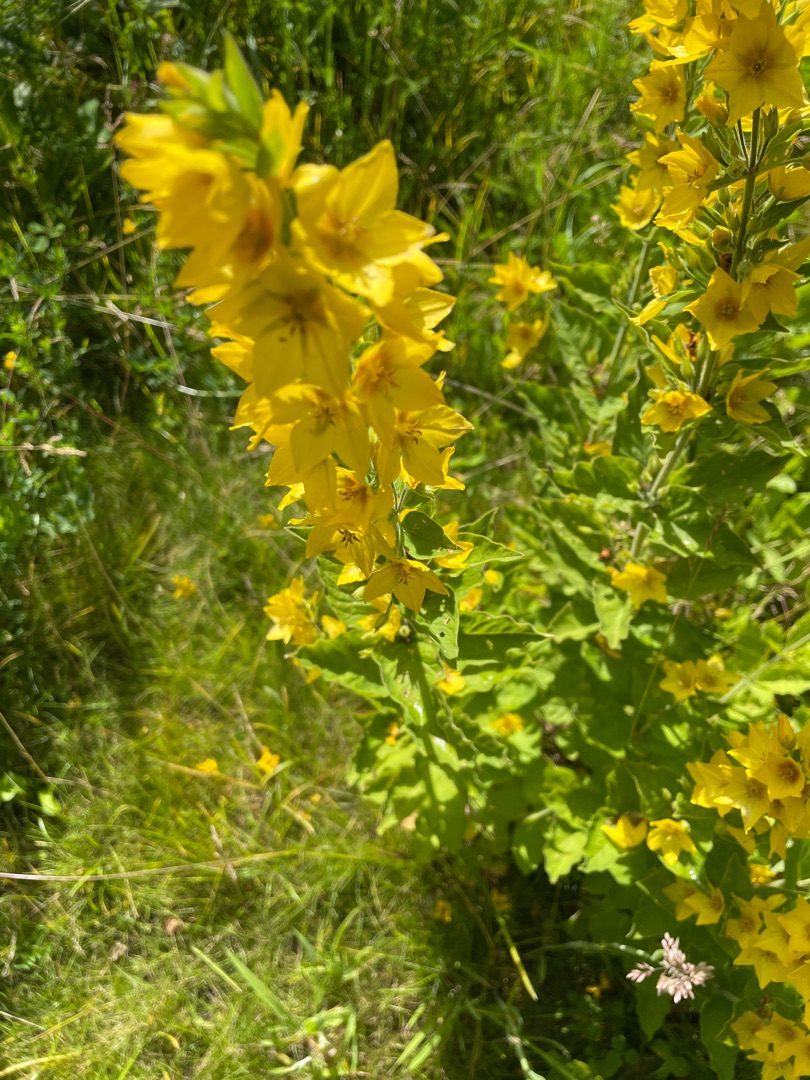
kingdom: Plantae
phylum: Tracheophyta
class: Magnoliopsida
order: Ericales
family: Primulaceae
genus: Lysimachia
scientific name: Lysimachia punctata
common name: Prikbladet fredløs
